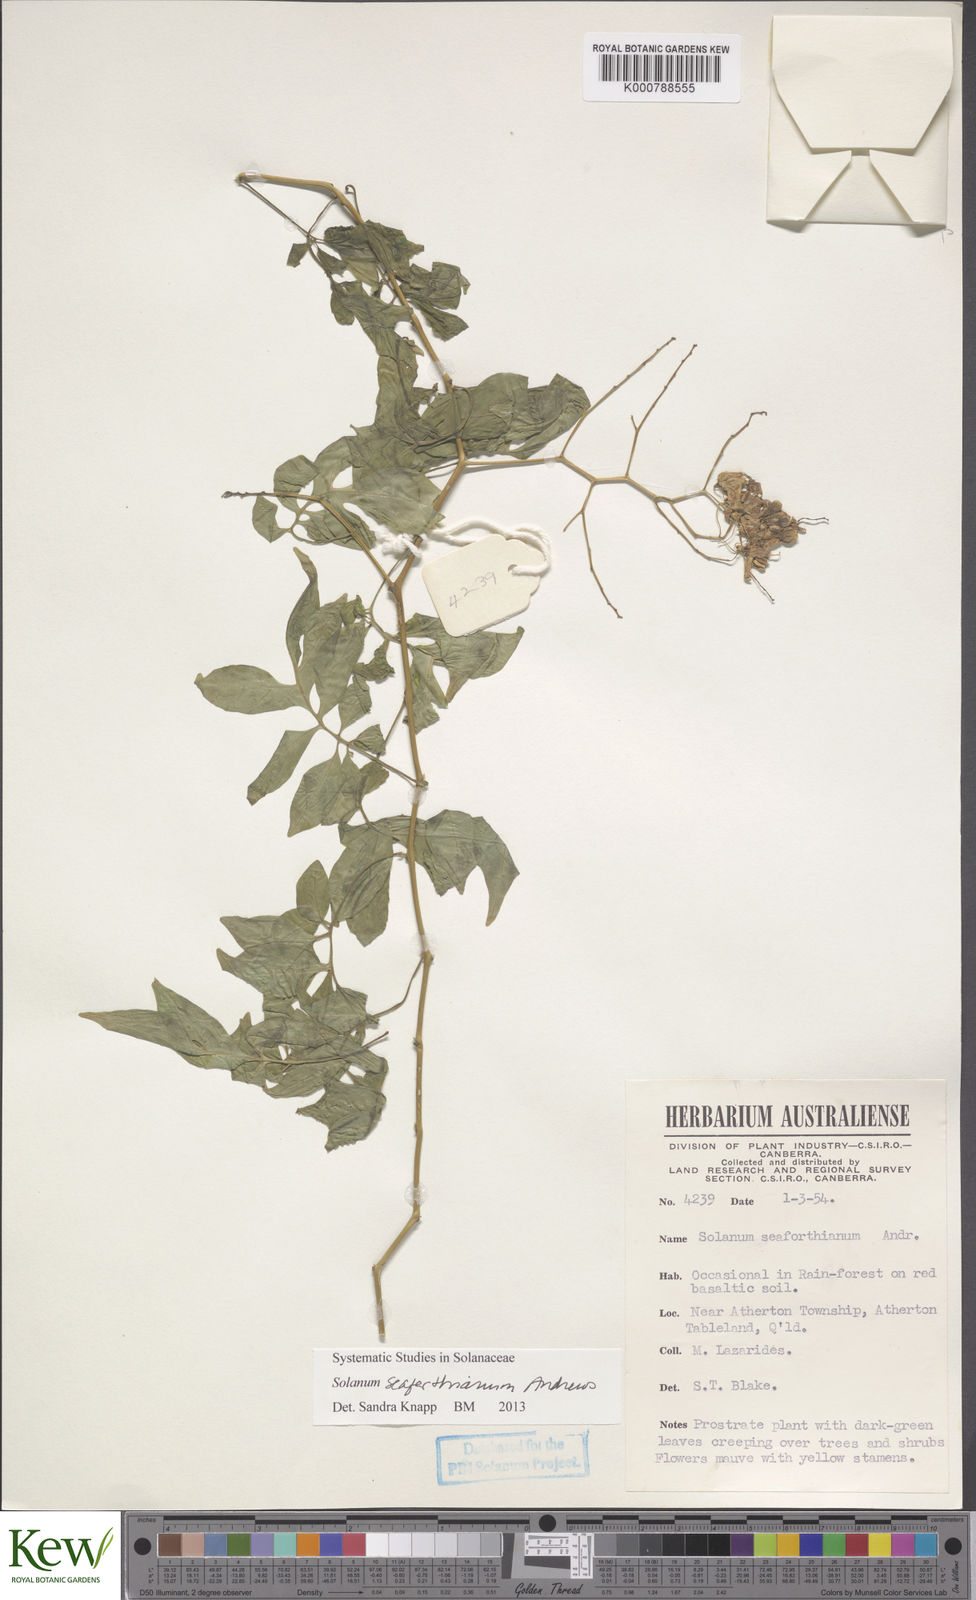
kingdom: Plantae
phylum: Tracheophyta
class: Magnoliopsida
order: Solanales
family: Solanaceae
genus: Solanum
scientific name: Solanum seaforthianum
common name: Brazilian nightshade
